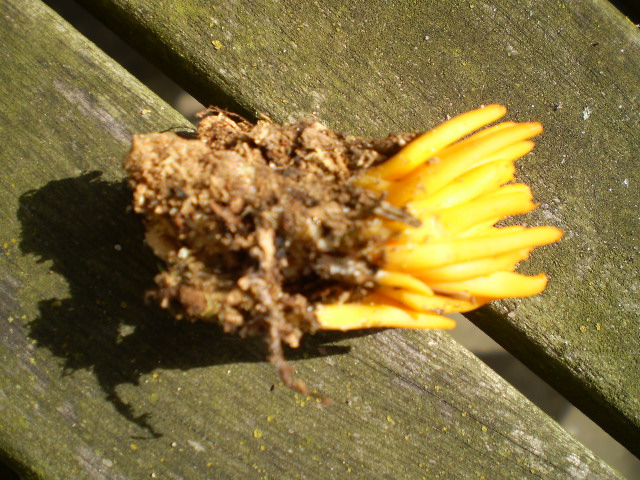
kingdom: Fungi
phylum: Basidiomycota
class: Dacrymycetes
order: Dacrymycetales
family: Dacrymycetaceae
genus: Calocera
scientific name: Calocera viscosa
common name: almindelig guldgaffel
